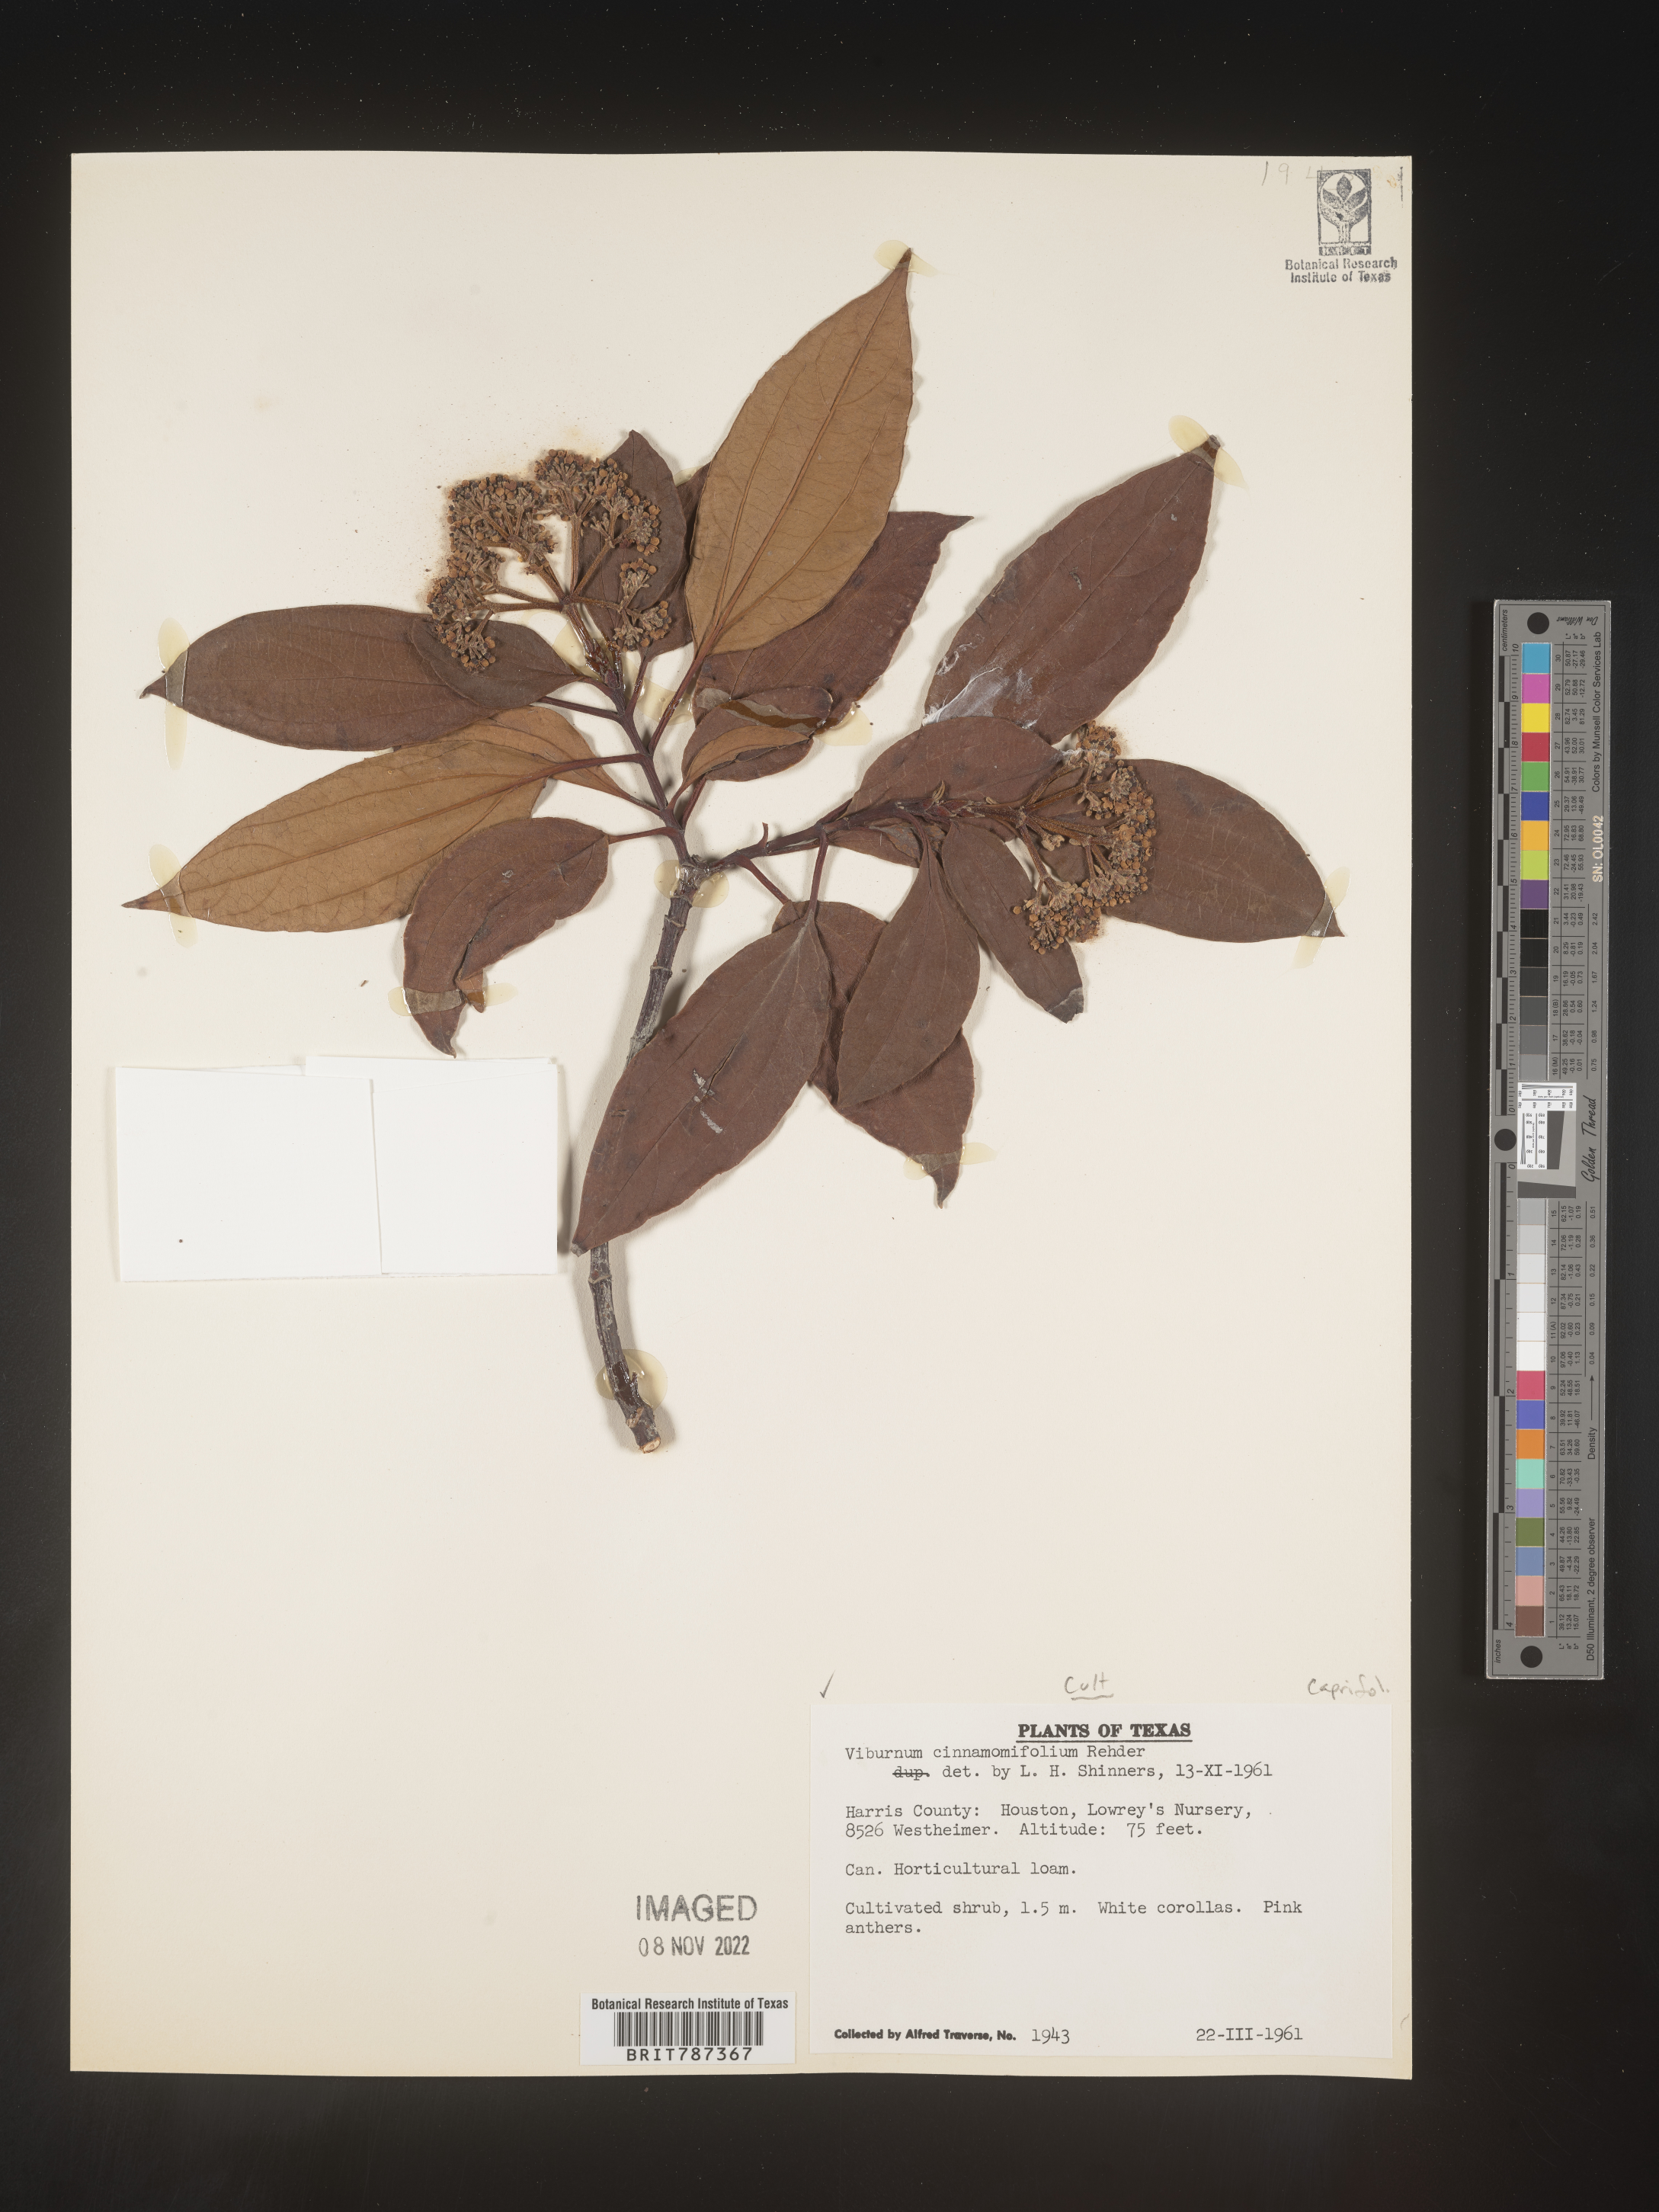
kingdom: Plantae
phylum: Tracheophyta
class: Magnoliopsida
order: Dipsacales
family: Viburnaceae
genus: Viburnum
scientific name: Viburnum
